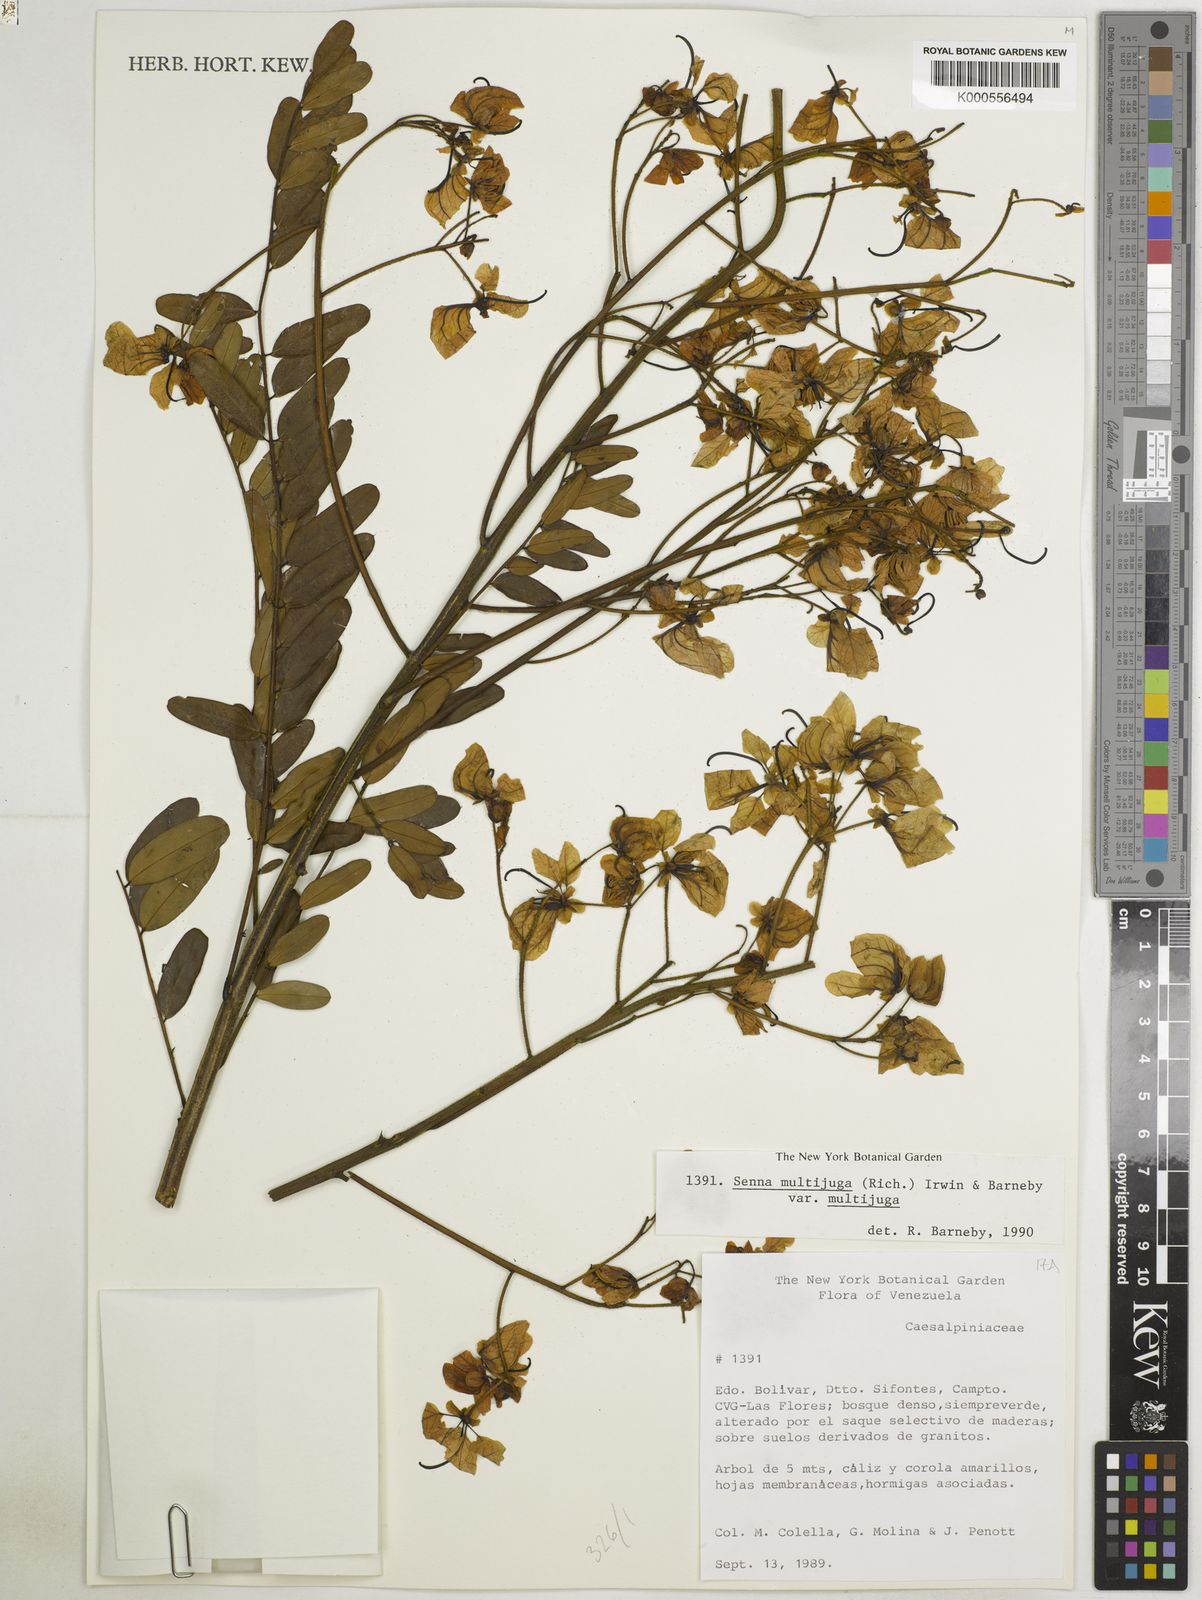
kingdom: Plantae
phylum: Tracheophyta
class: Magnoliopsida
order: Fabales
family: Fabaceae
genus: Senna
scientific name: Senna multijuga
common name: False sicklepod
